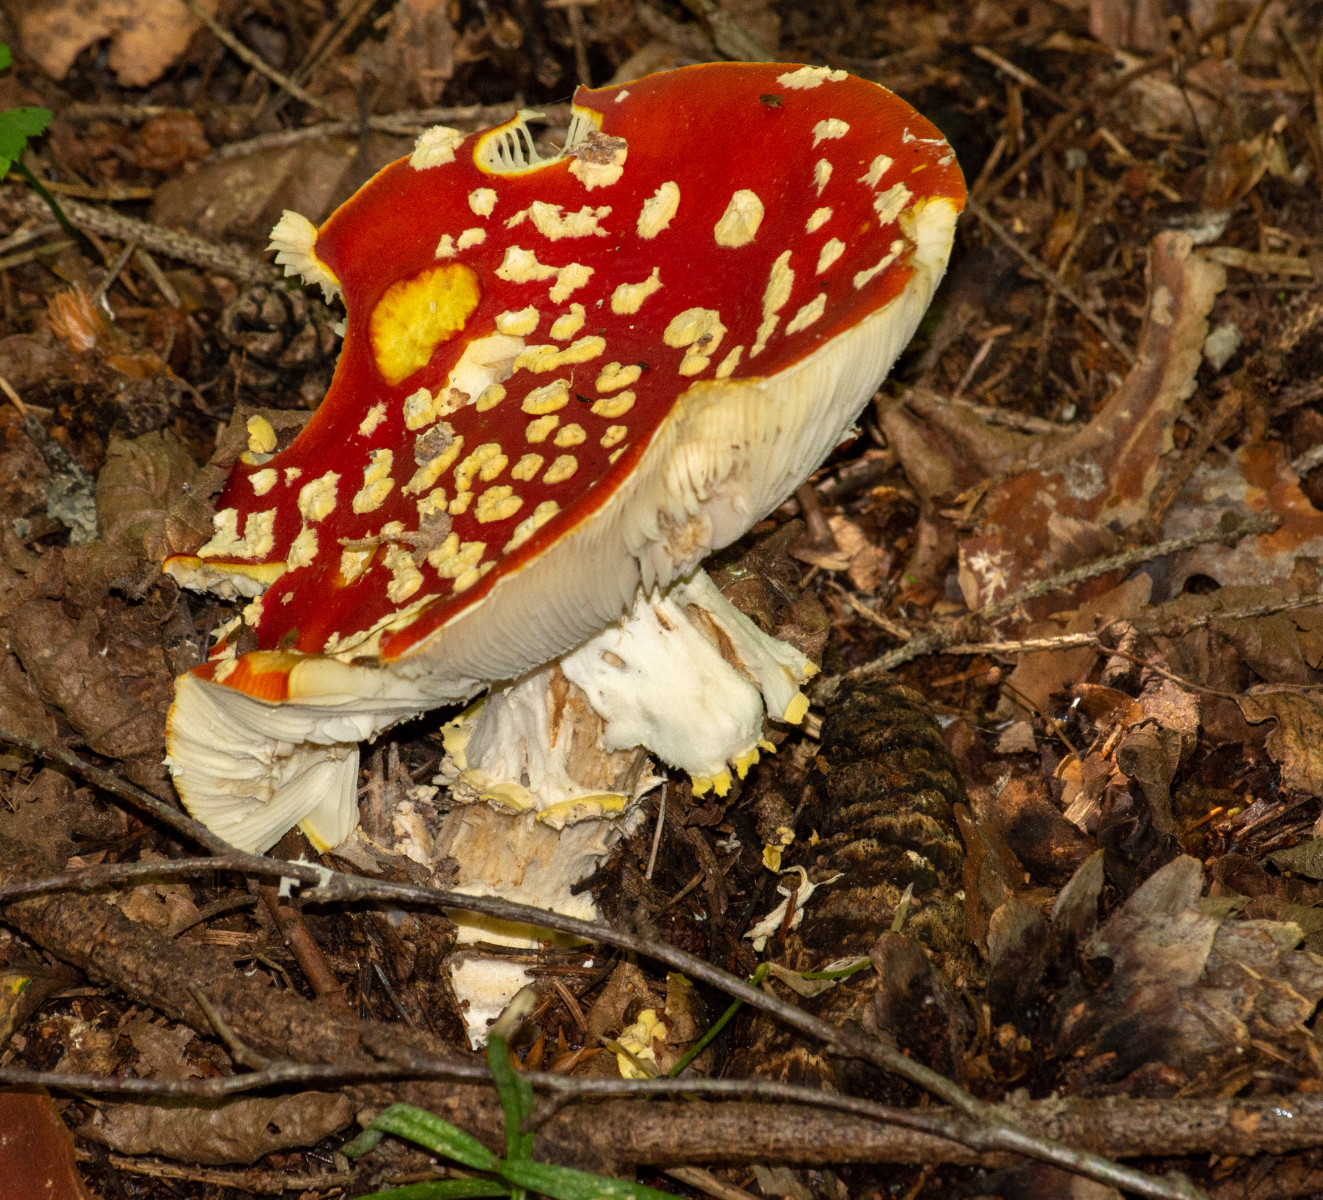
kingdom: Fungi
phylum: Basidiomycota
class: Agaricomycetes
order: Agaricales
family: Amanitaceae
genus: Amanita
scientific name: Amanita muscaria
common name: rød fluesvamp
